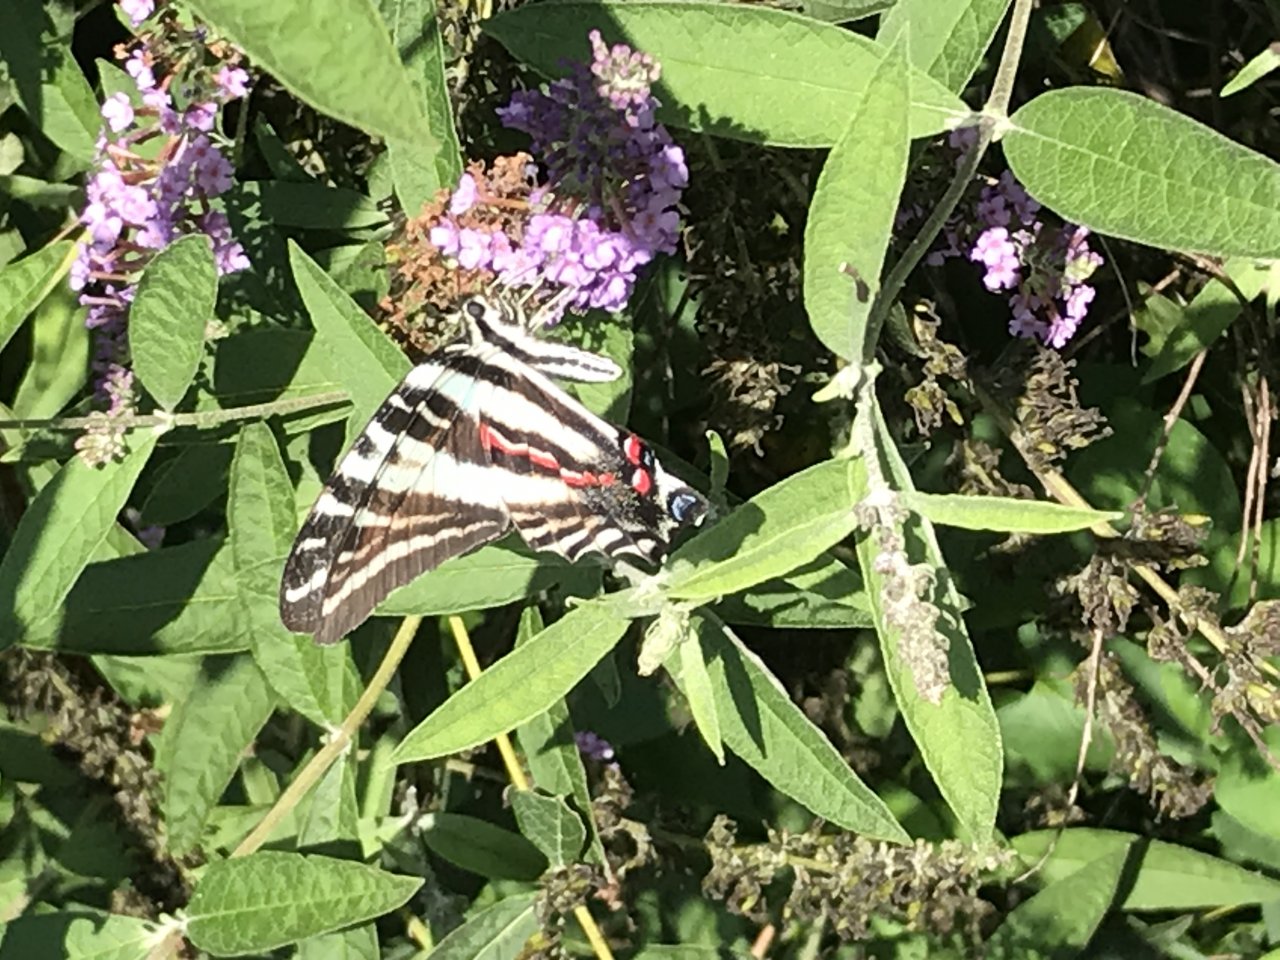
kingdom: Animalia
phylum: Arthropoda
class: Insecta
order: Lepidoptera
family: Papilionidae
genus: Protographium
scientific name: Protographium marcellus
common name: Zebra Swallowtail
